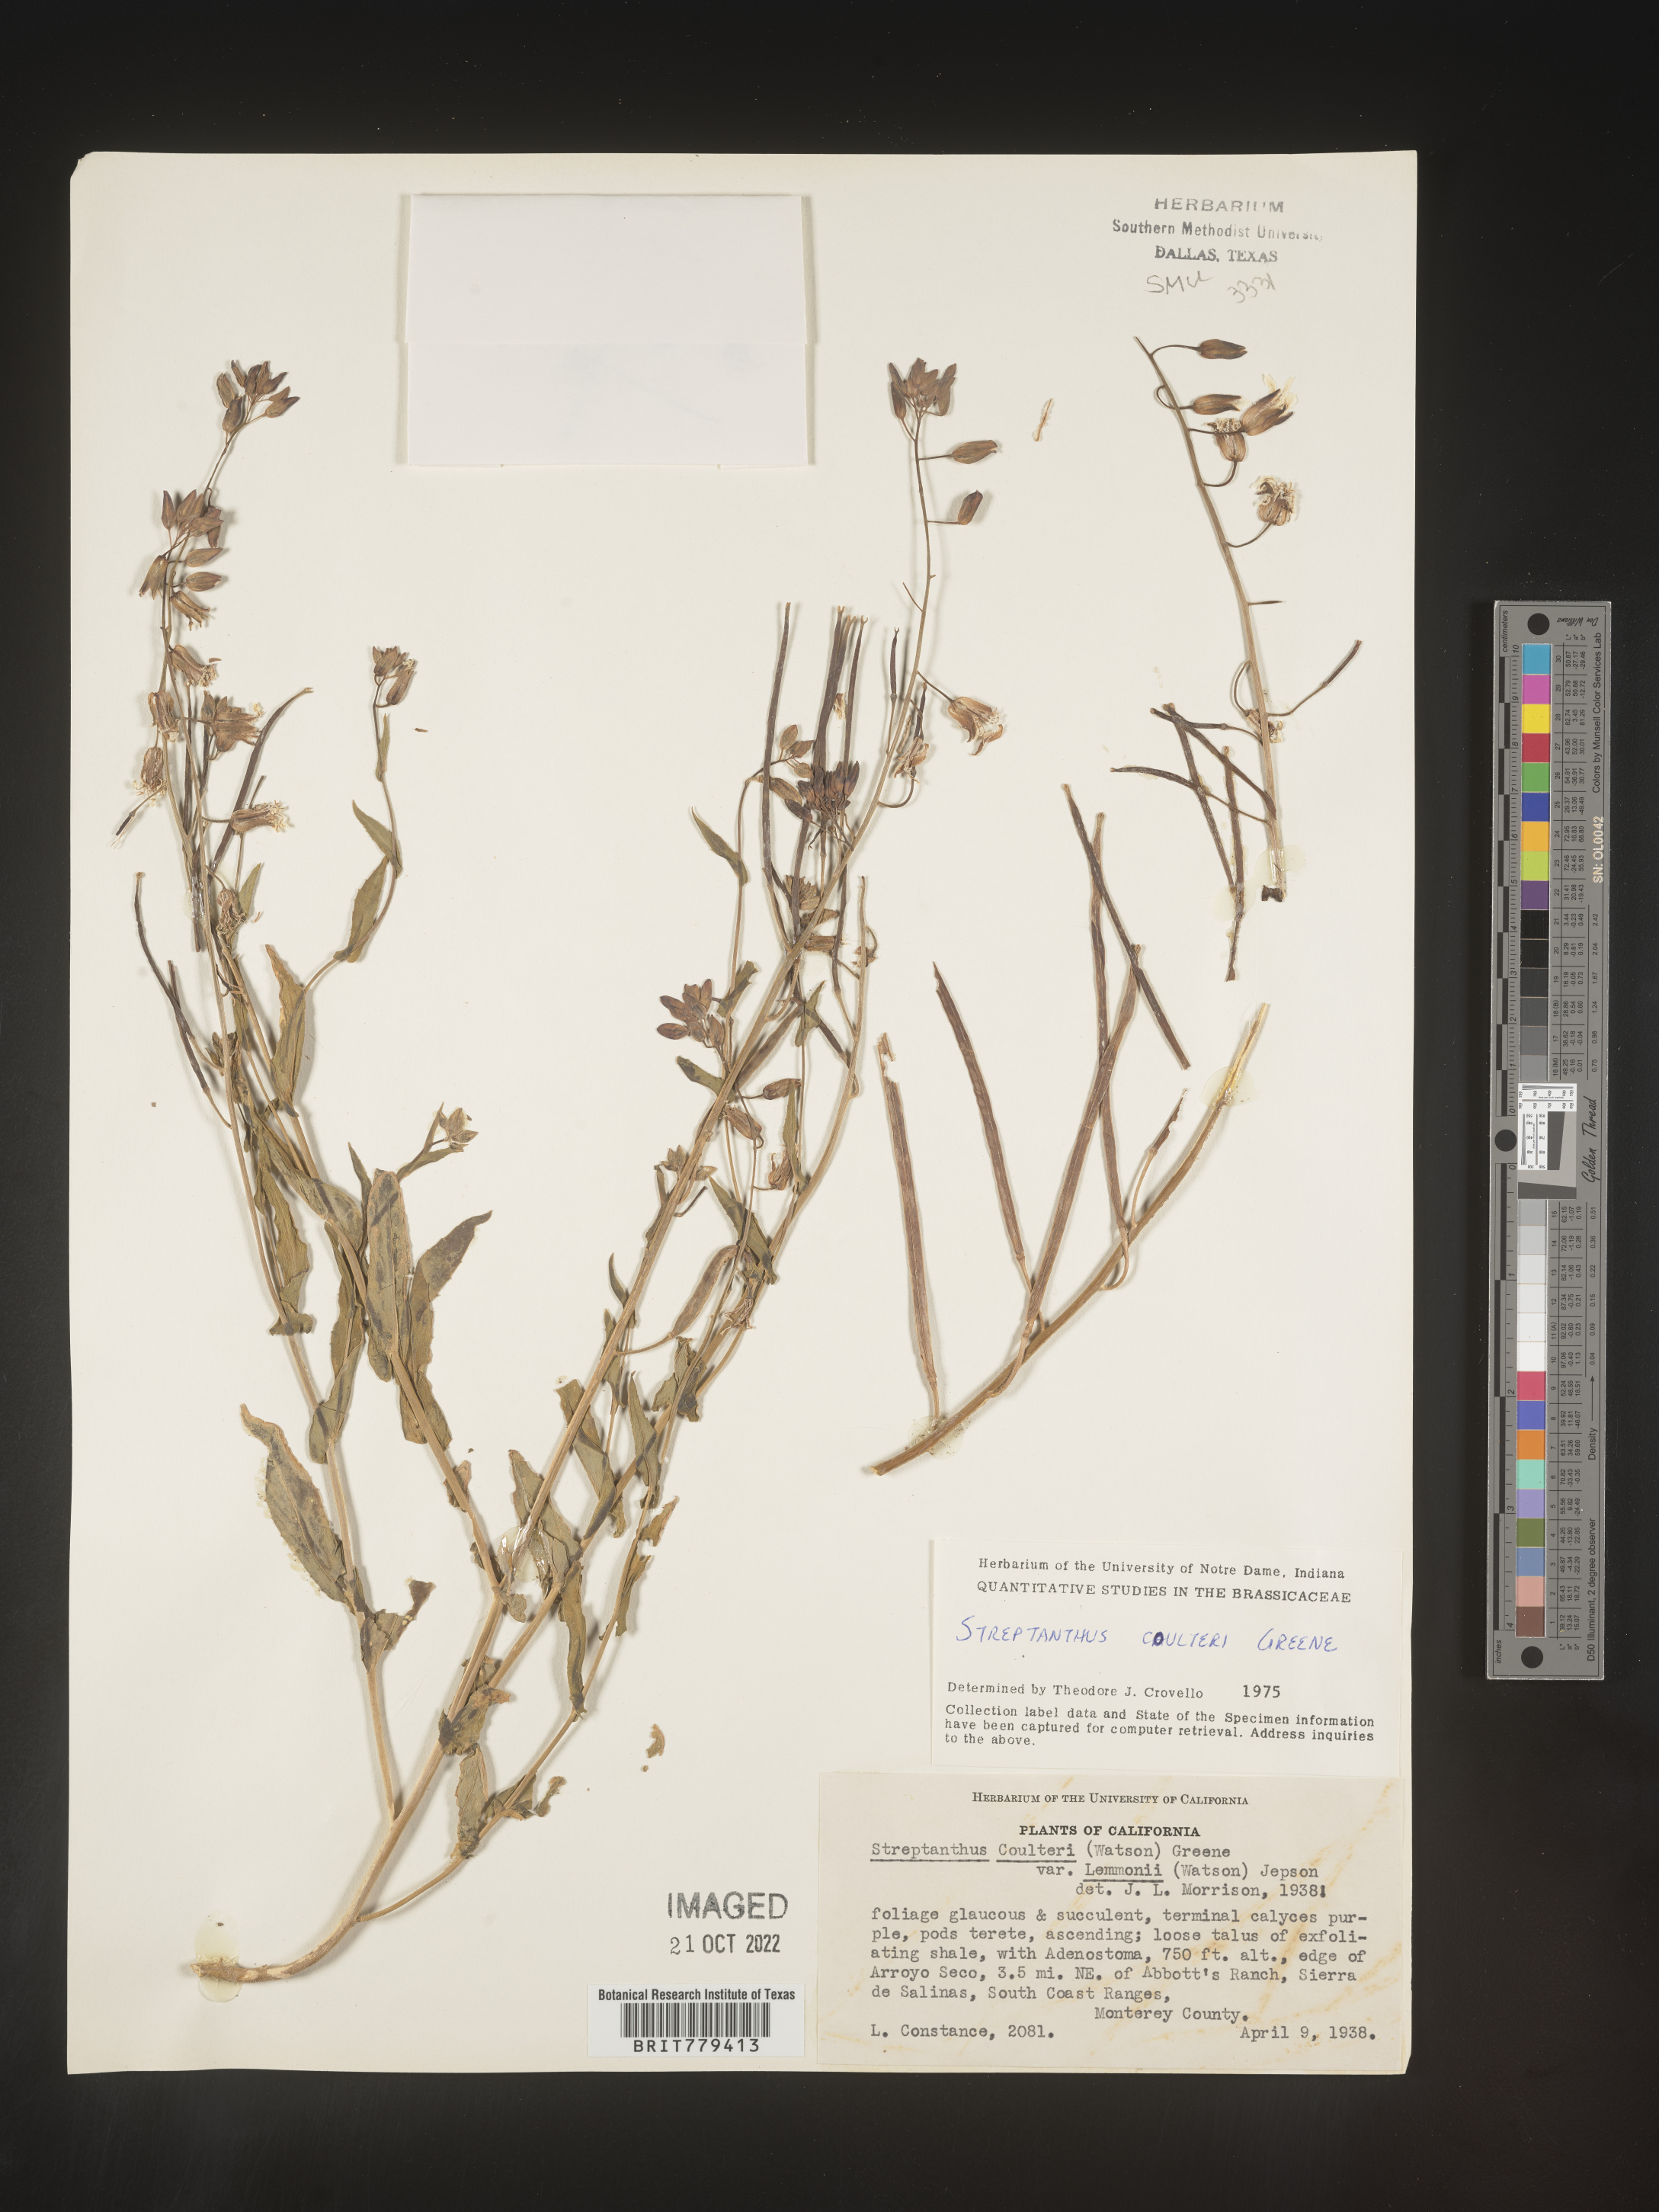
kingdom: Plantae
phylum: Tracheophyta
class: Magnoliopsida
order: Brassicales
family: Brassicaceae
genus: Streptanthus
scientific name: Streptanthus
